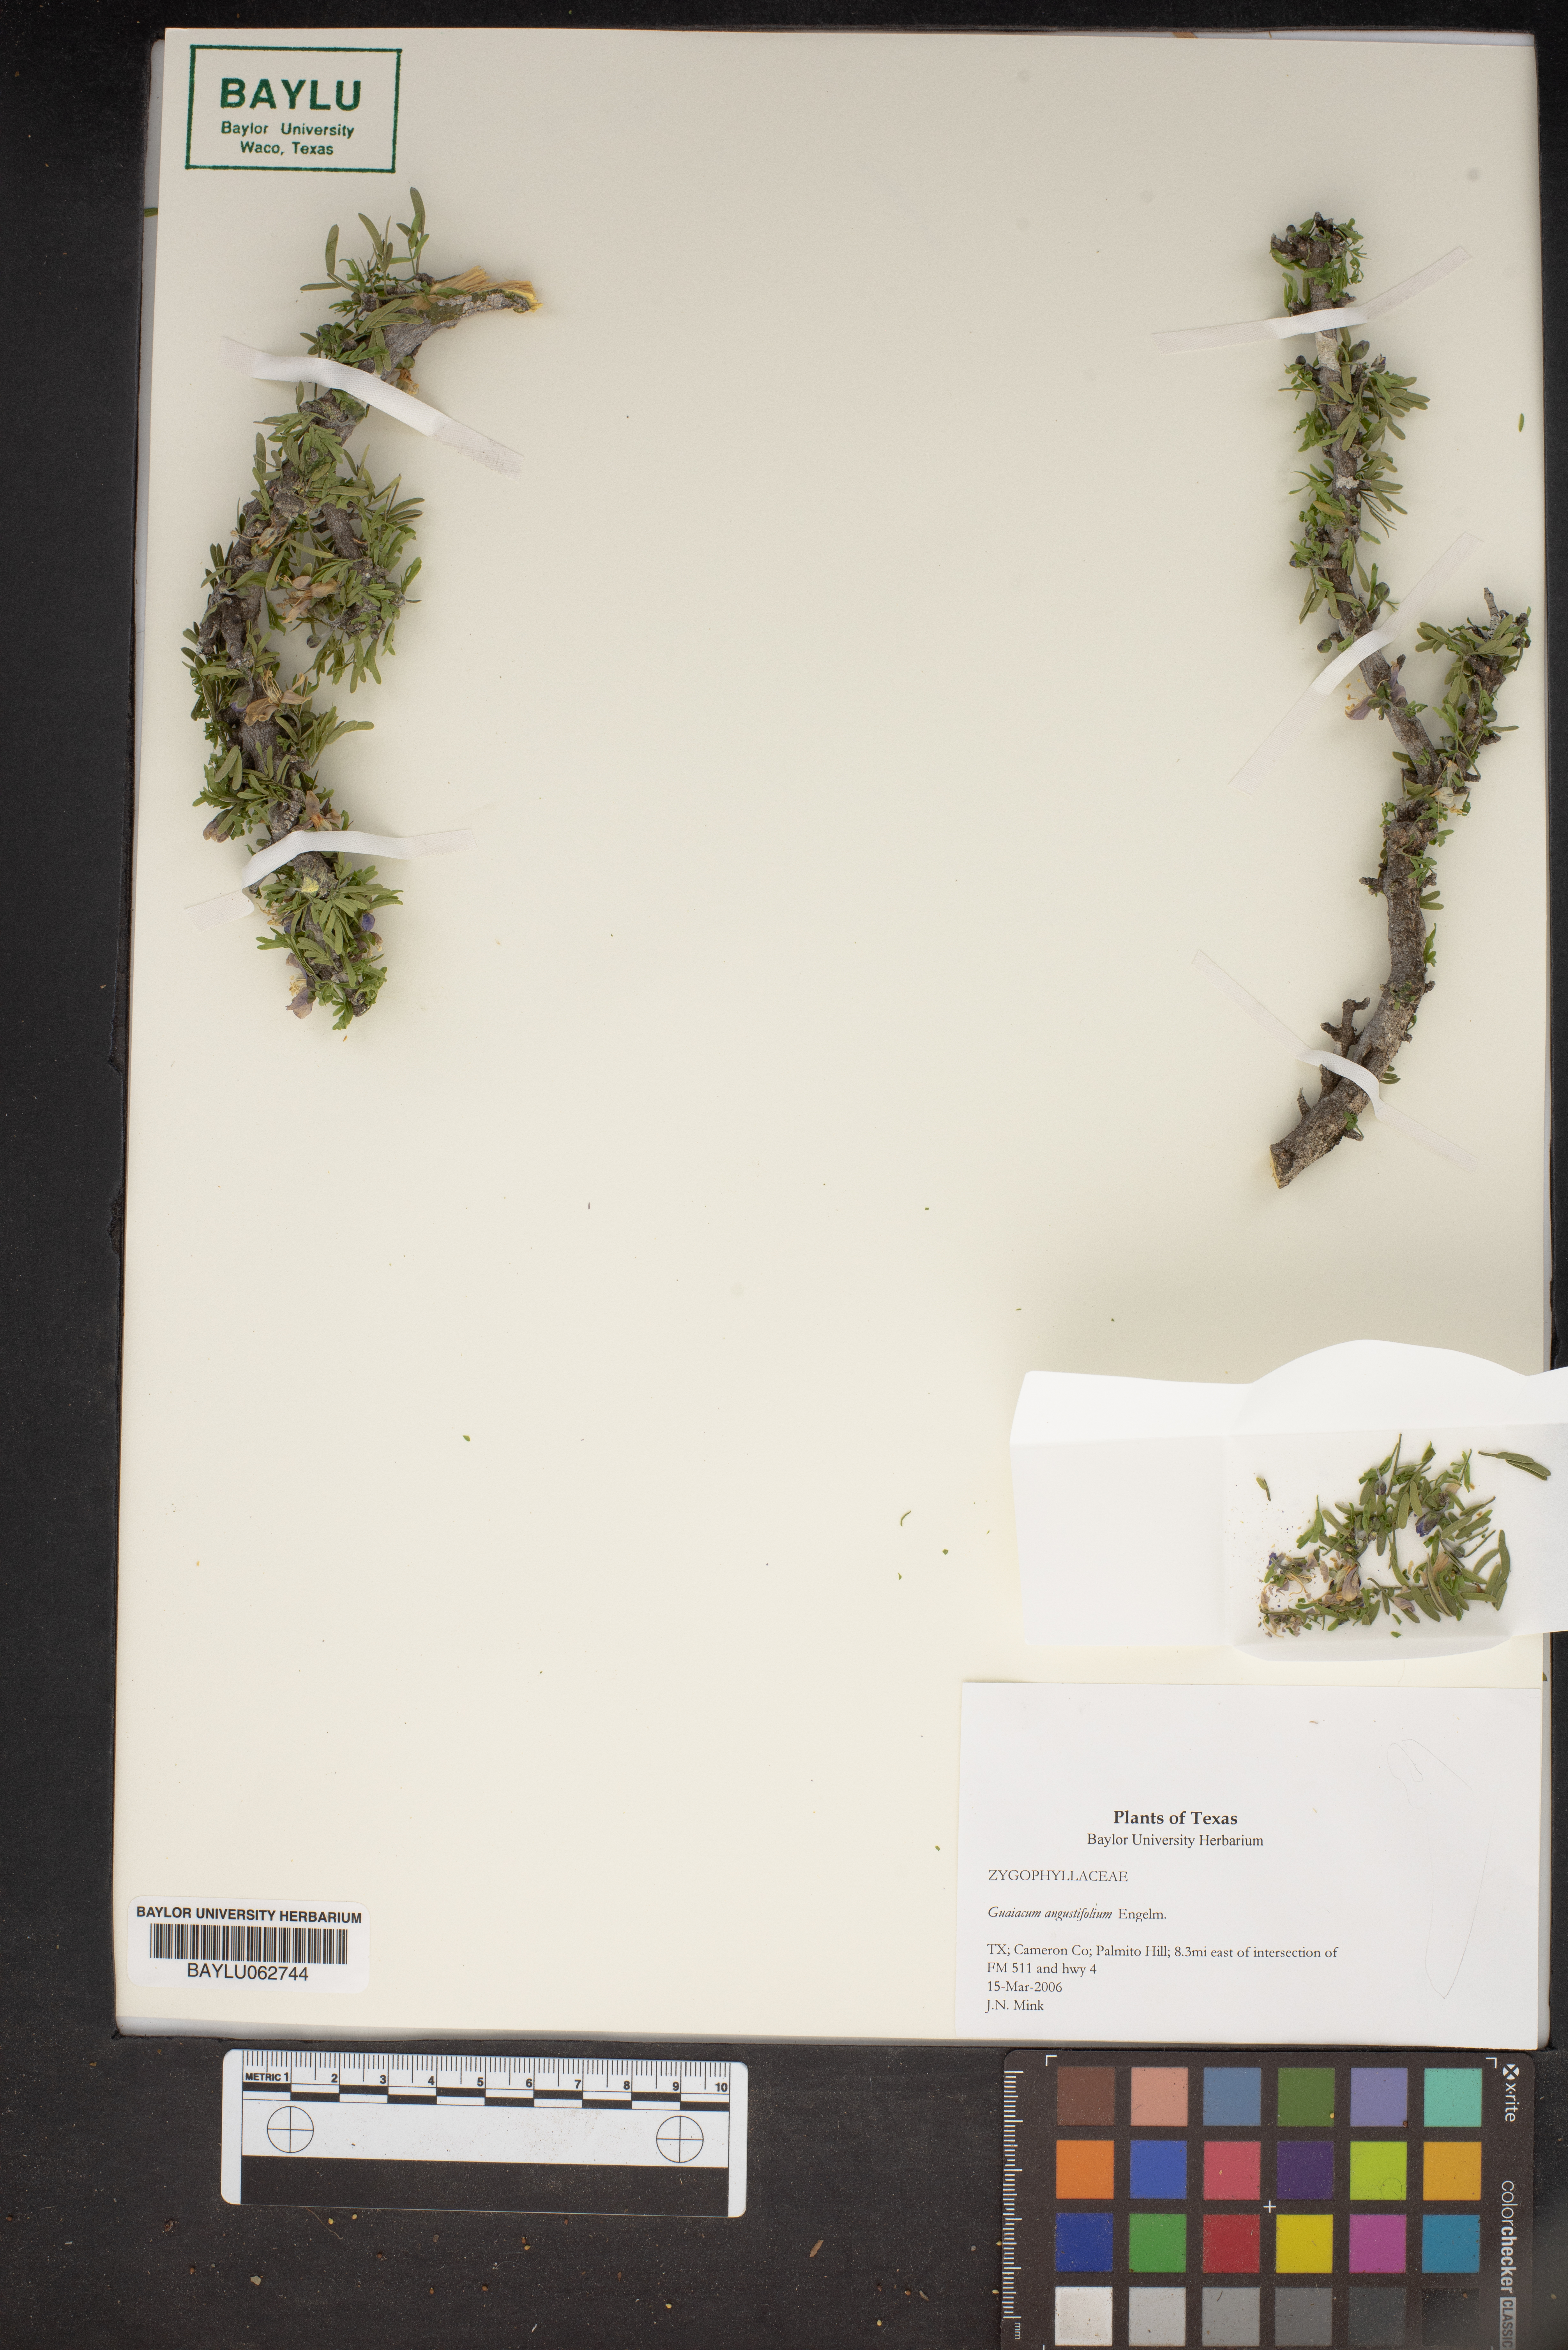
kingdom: Plantae
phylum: Tracheophyta
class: Magnoliopsida
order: Zygophyllales
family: Zygophyllaceae
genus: Porlieria
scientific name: Porlieria angustifolia
